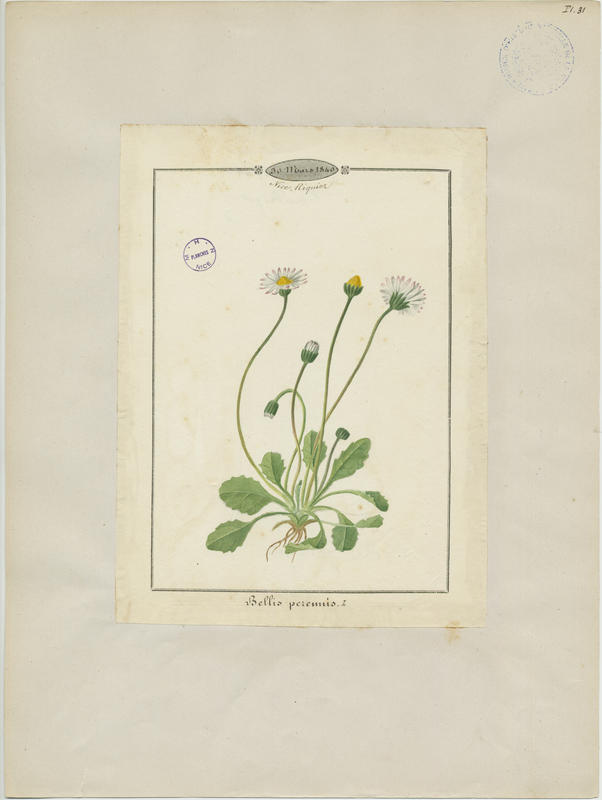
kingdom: Plantae
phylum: Tracheophyta
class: Magnoliopsida
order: Asterales
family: Asteraceae
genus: Bellis
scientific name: Bellis perennis
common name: Lawndaisy
